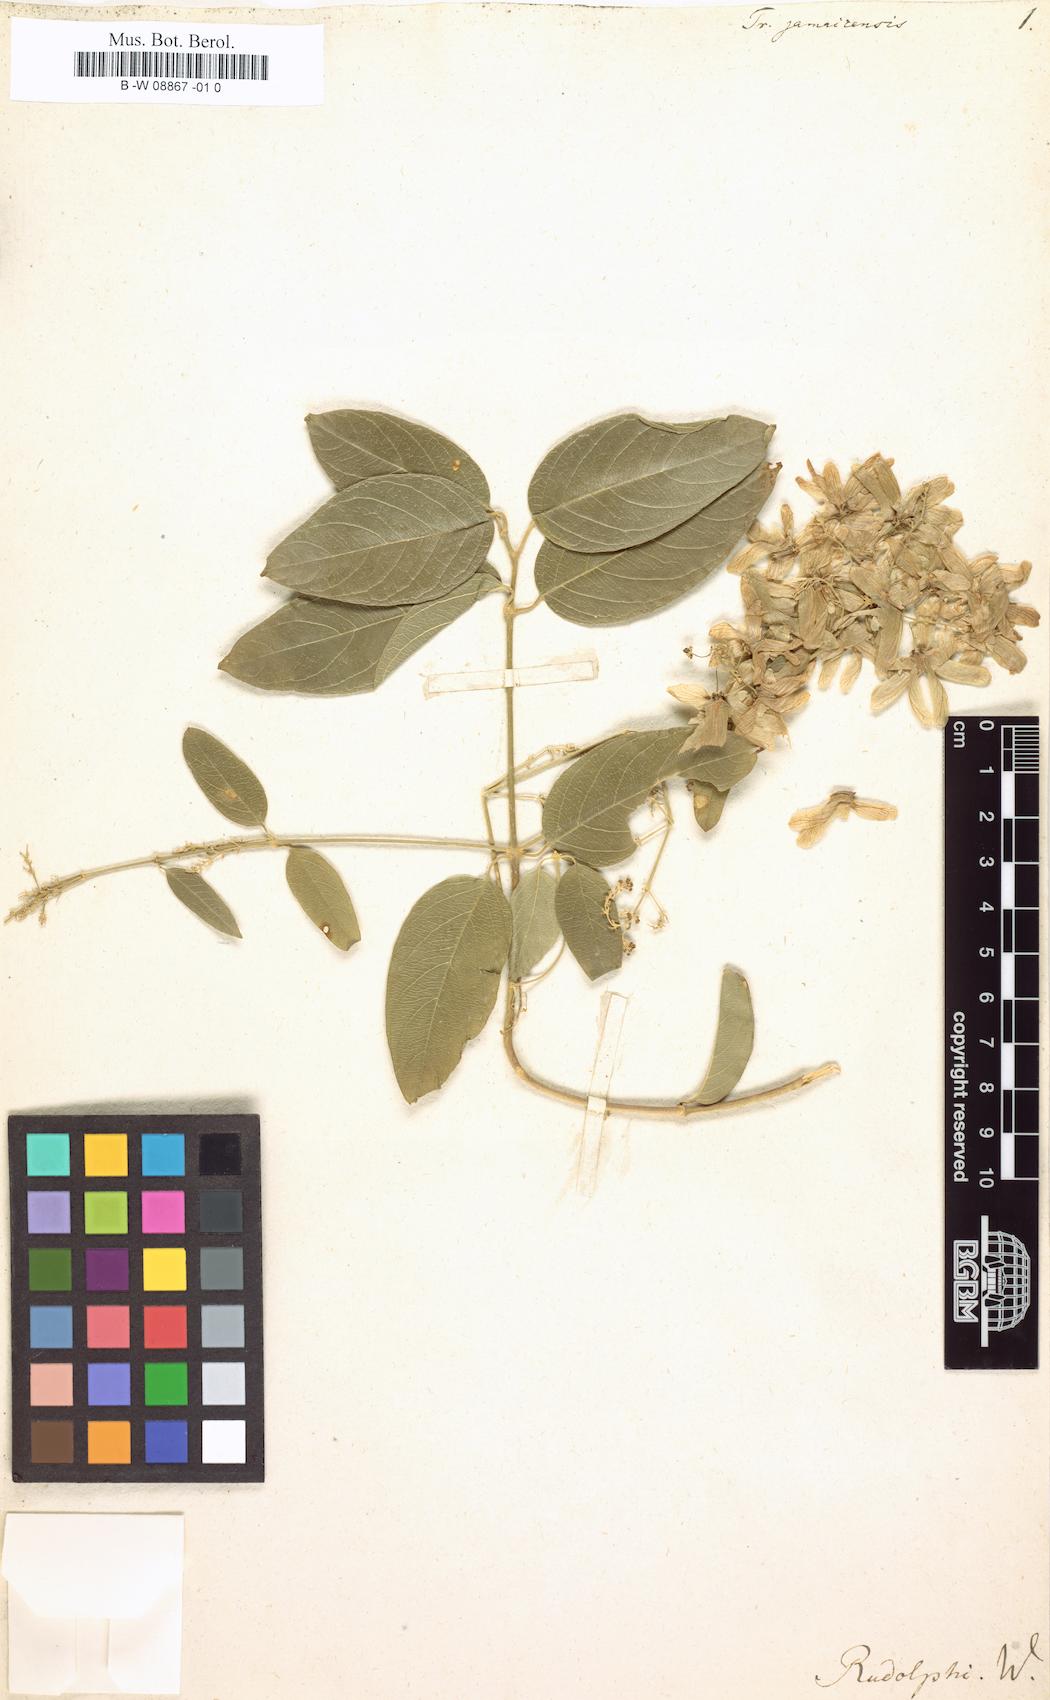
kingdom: Plantae
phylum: Tracheophyta
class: Magnoliopsida
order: Malpighiales
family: Malpighiaceae
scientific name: Malpighiaceae
